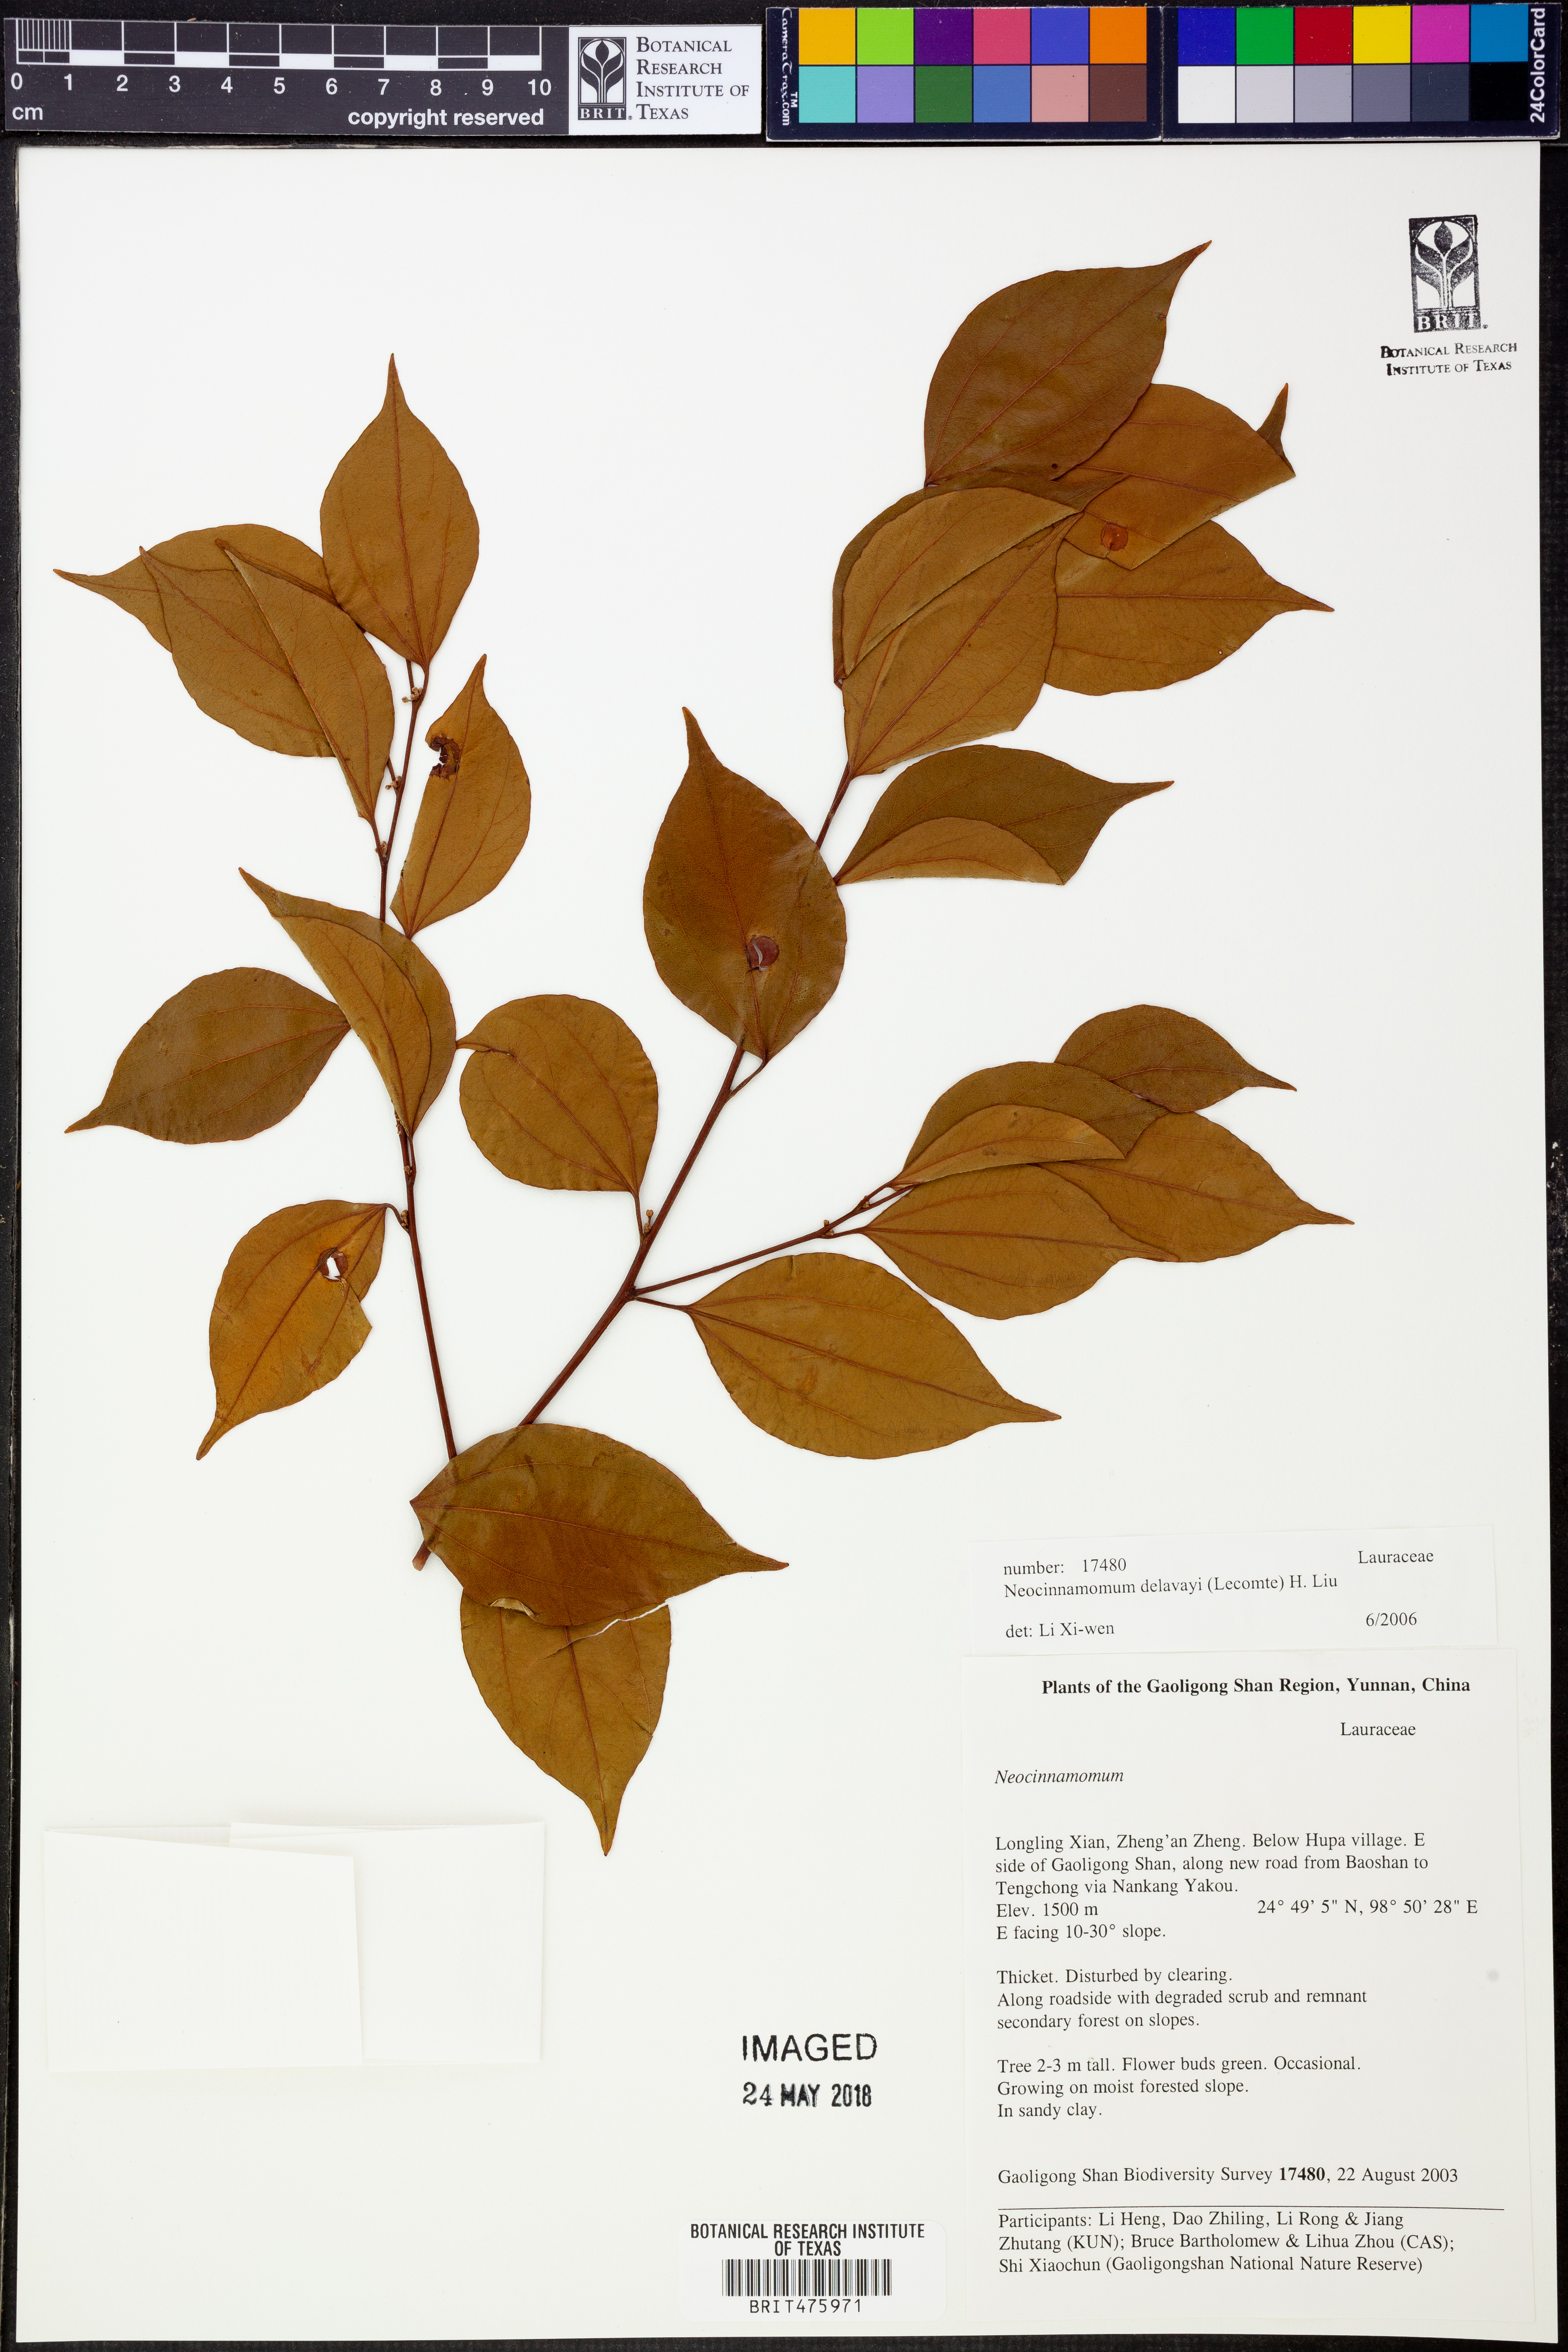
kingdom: Plantae
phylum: Tracheophyta
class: Magnoliopsida
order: Laurales
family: Lauraceae
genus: Neocinnamomum
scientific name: Neocinnamomum delavayi
